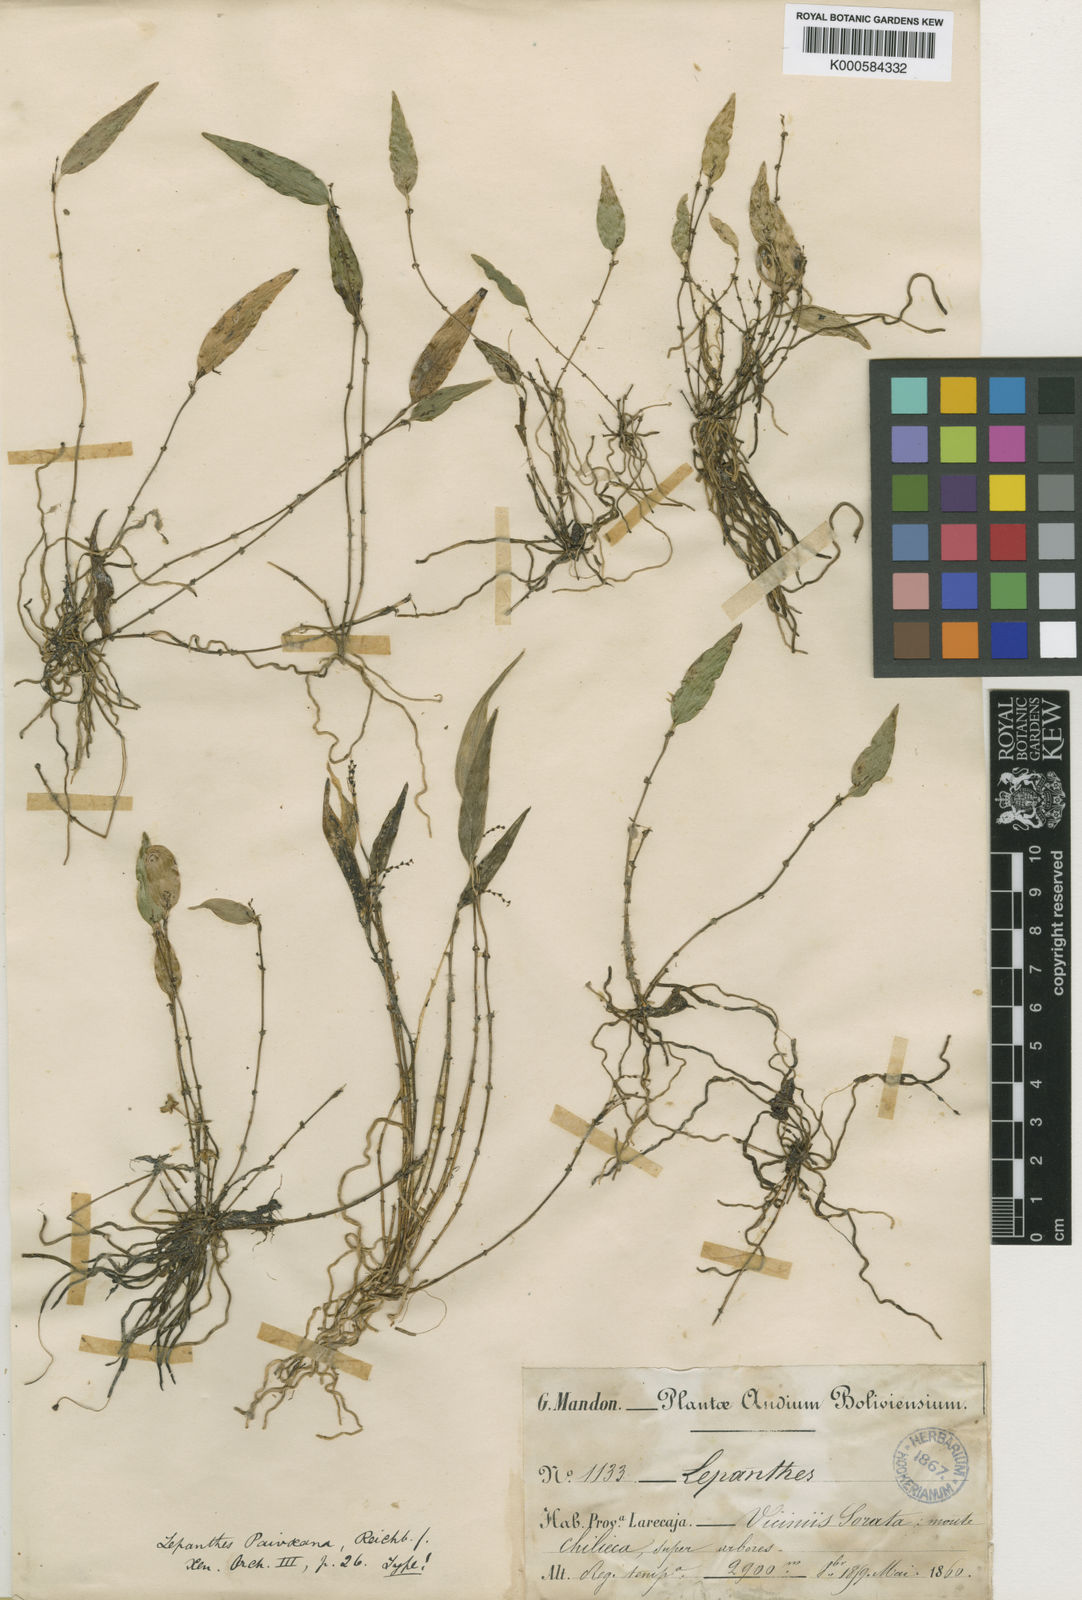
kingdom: Plantae
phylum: Tracheophyta
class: Liliopsida
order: Asparagales
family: Orchidaceae
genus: Lepanthes
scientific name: Lepanthes
